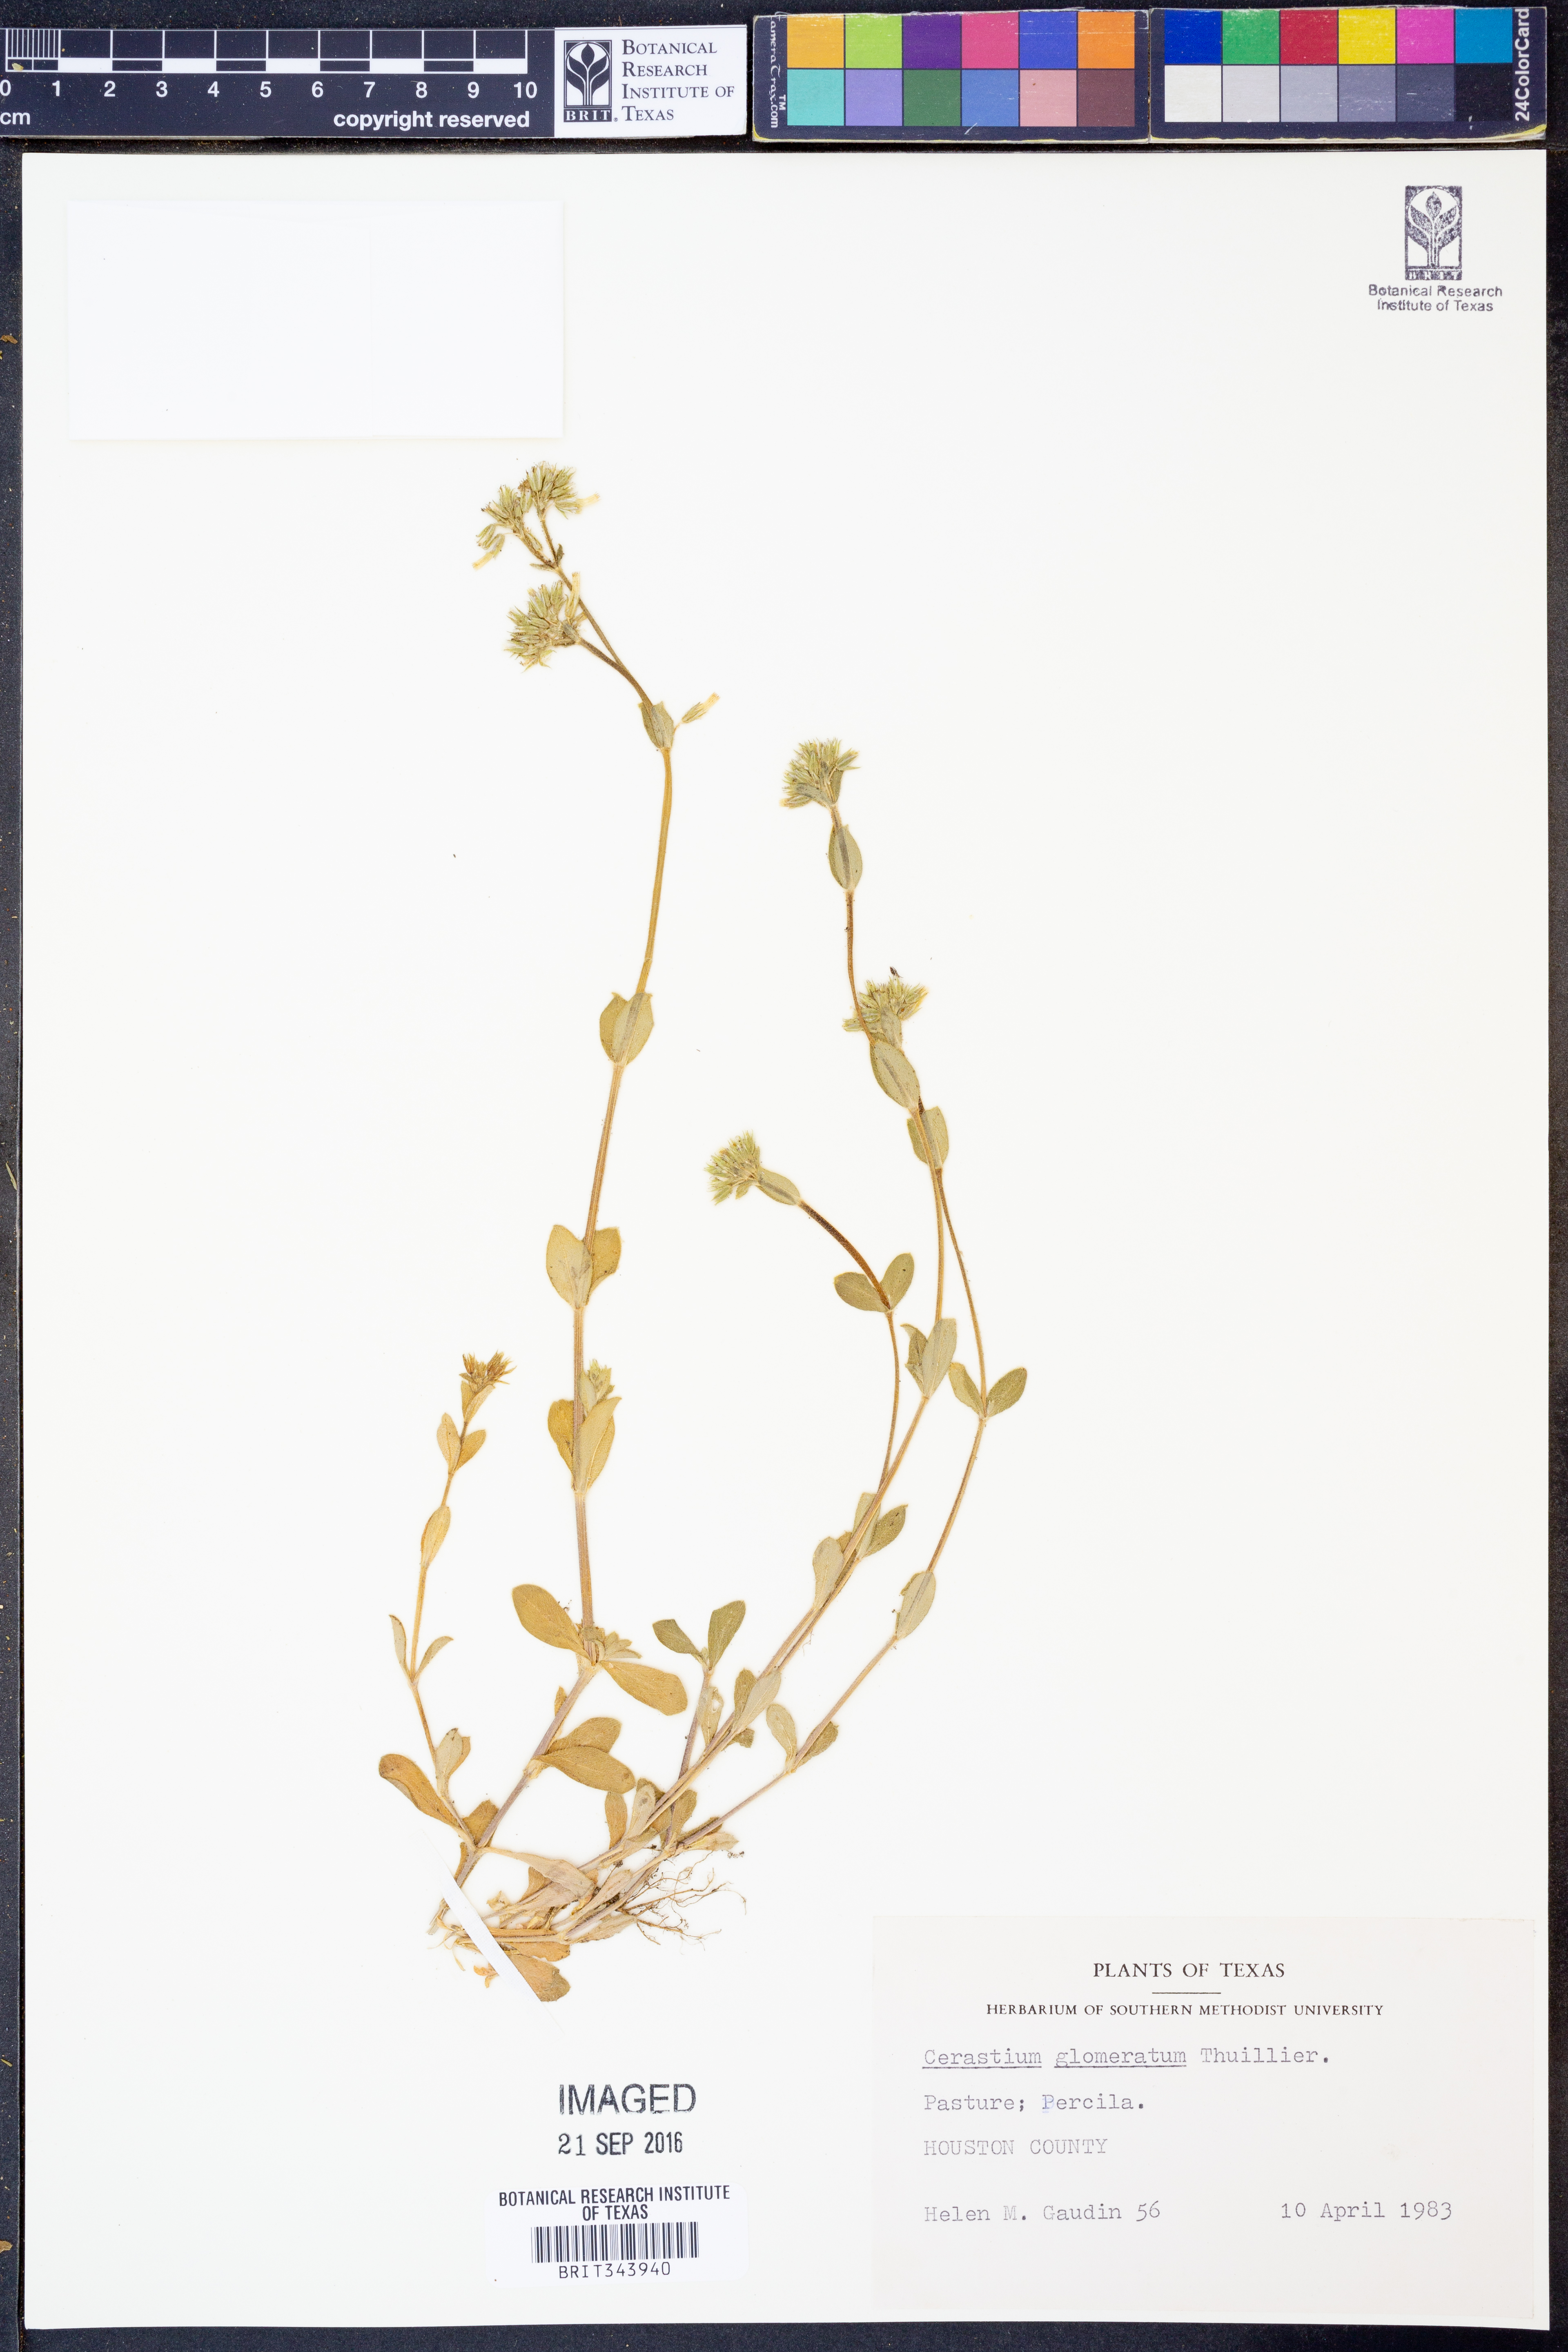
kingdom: Plantae
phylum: Tracheophyta
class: Magnoliopsida
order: Caryophyllales
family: Caryophyllaceae
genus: Cerastium
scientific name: Cerastium glomeratum
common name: Sticky chickweed
